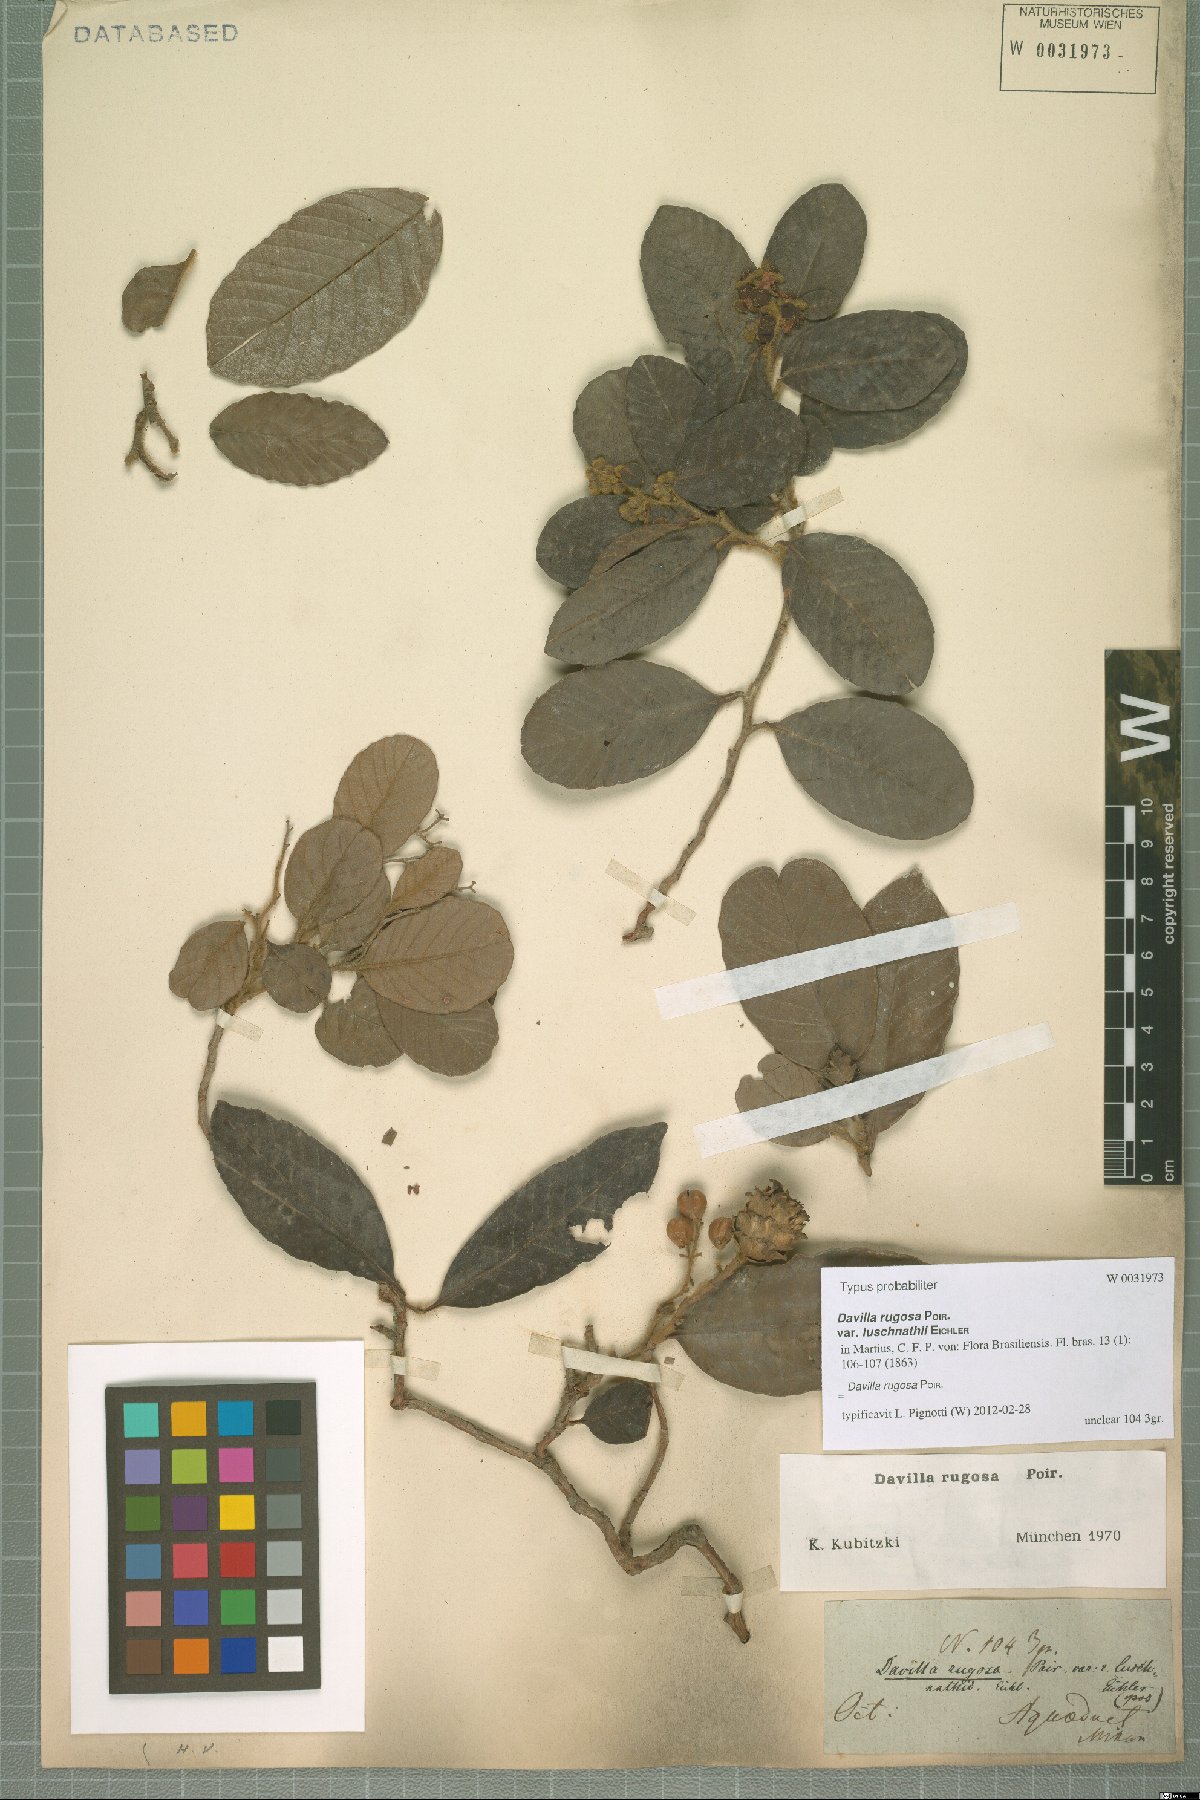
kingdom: Plantae
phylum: Tracheophyta
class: Magnoliopsida
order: Dilleniales
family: Dilleniaceae
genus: Davilla
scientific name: Davilla rugosa
